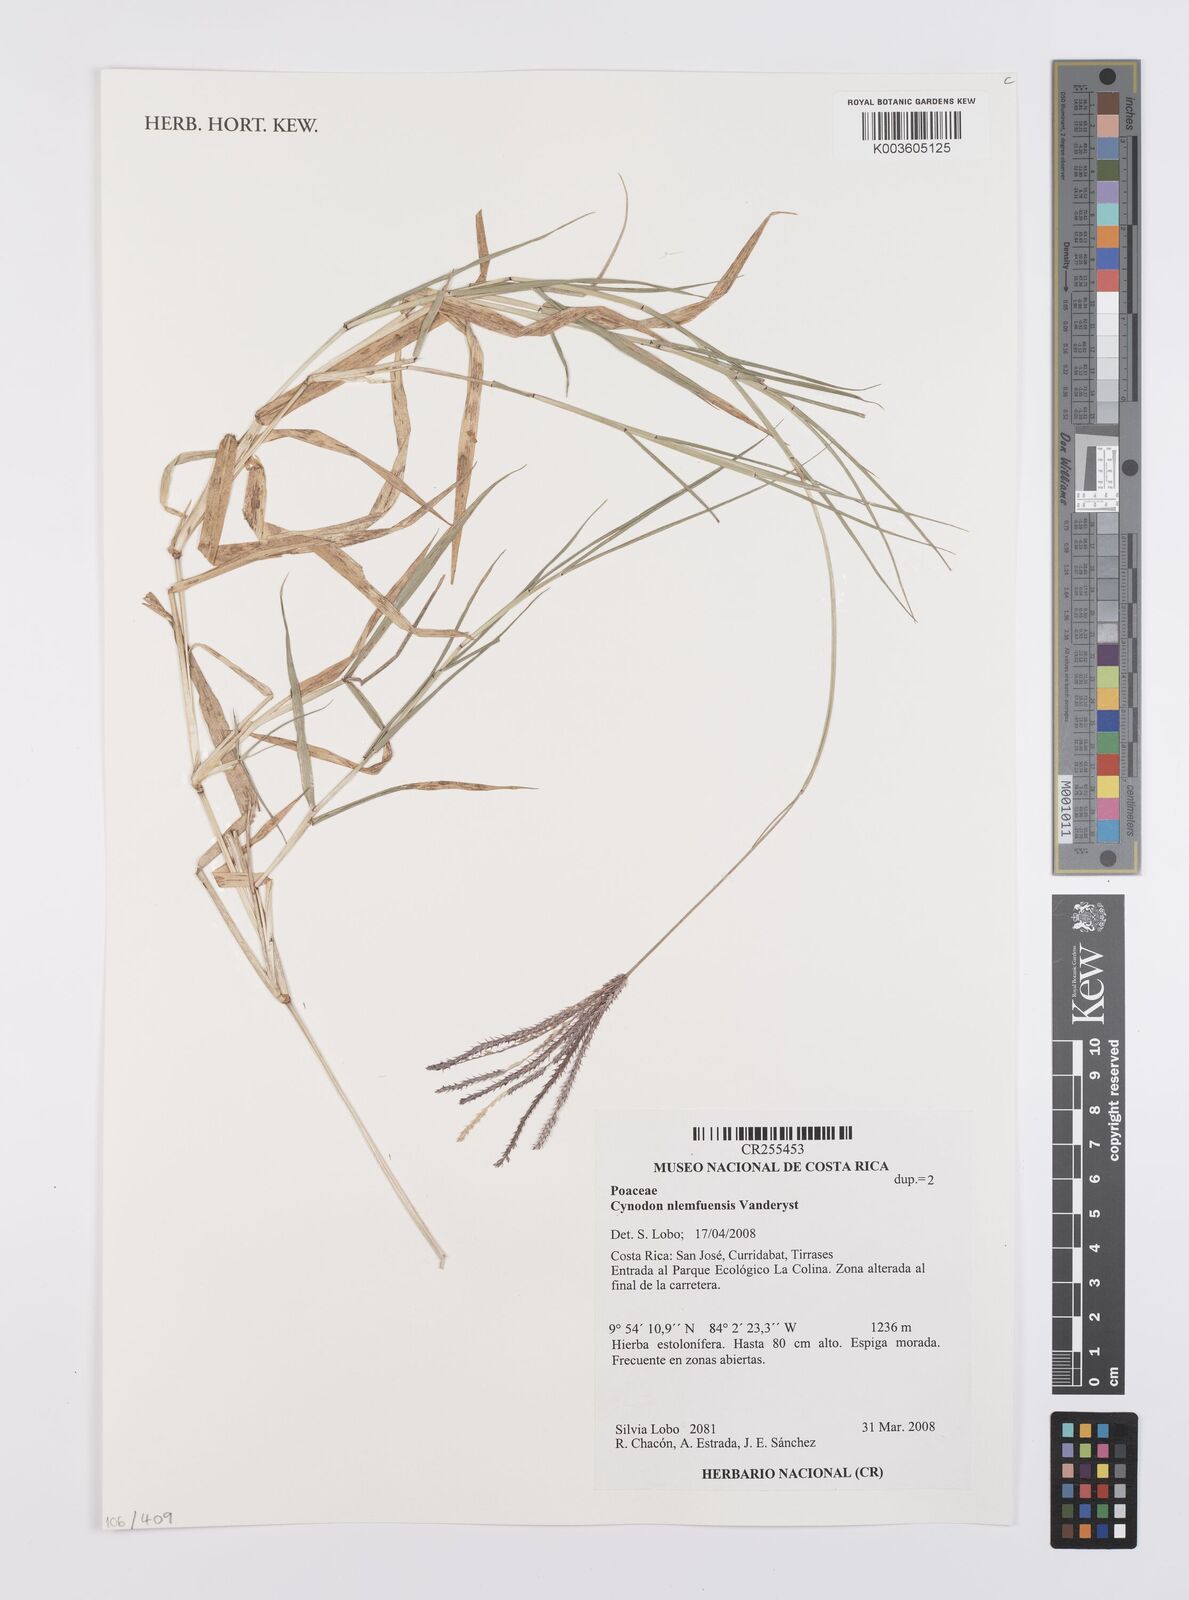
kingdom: Plantae
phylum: Tracheophyta
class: Liliopsida
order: Poales
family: Poaceae
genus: Cynodon
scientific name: Cynodon nlemfuensis
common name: African bermudagrass
